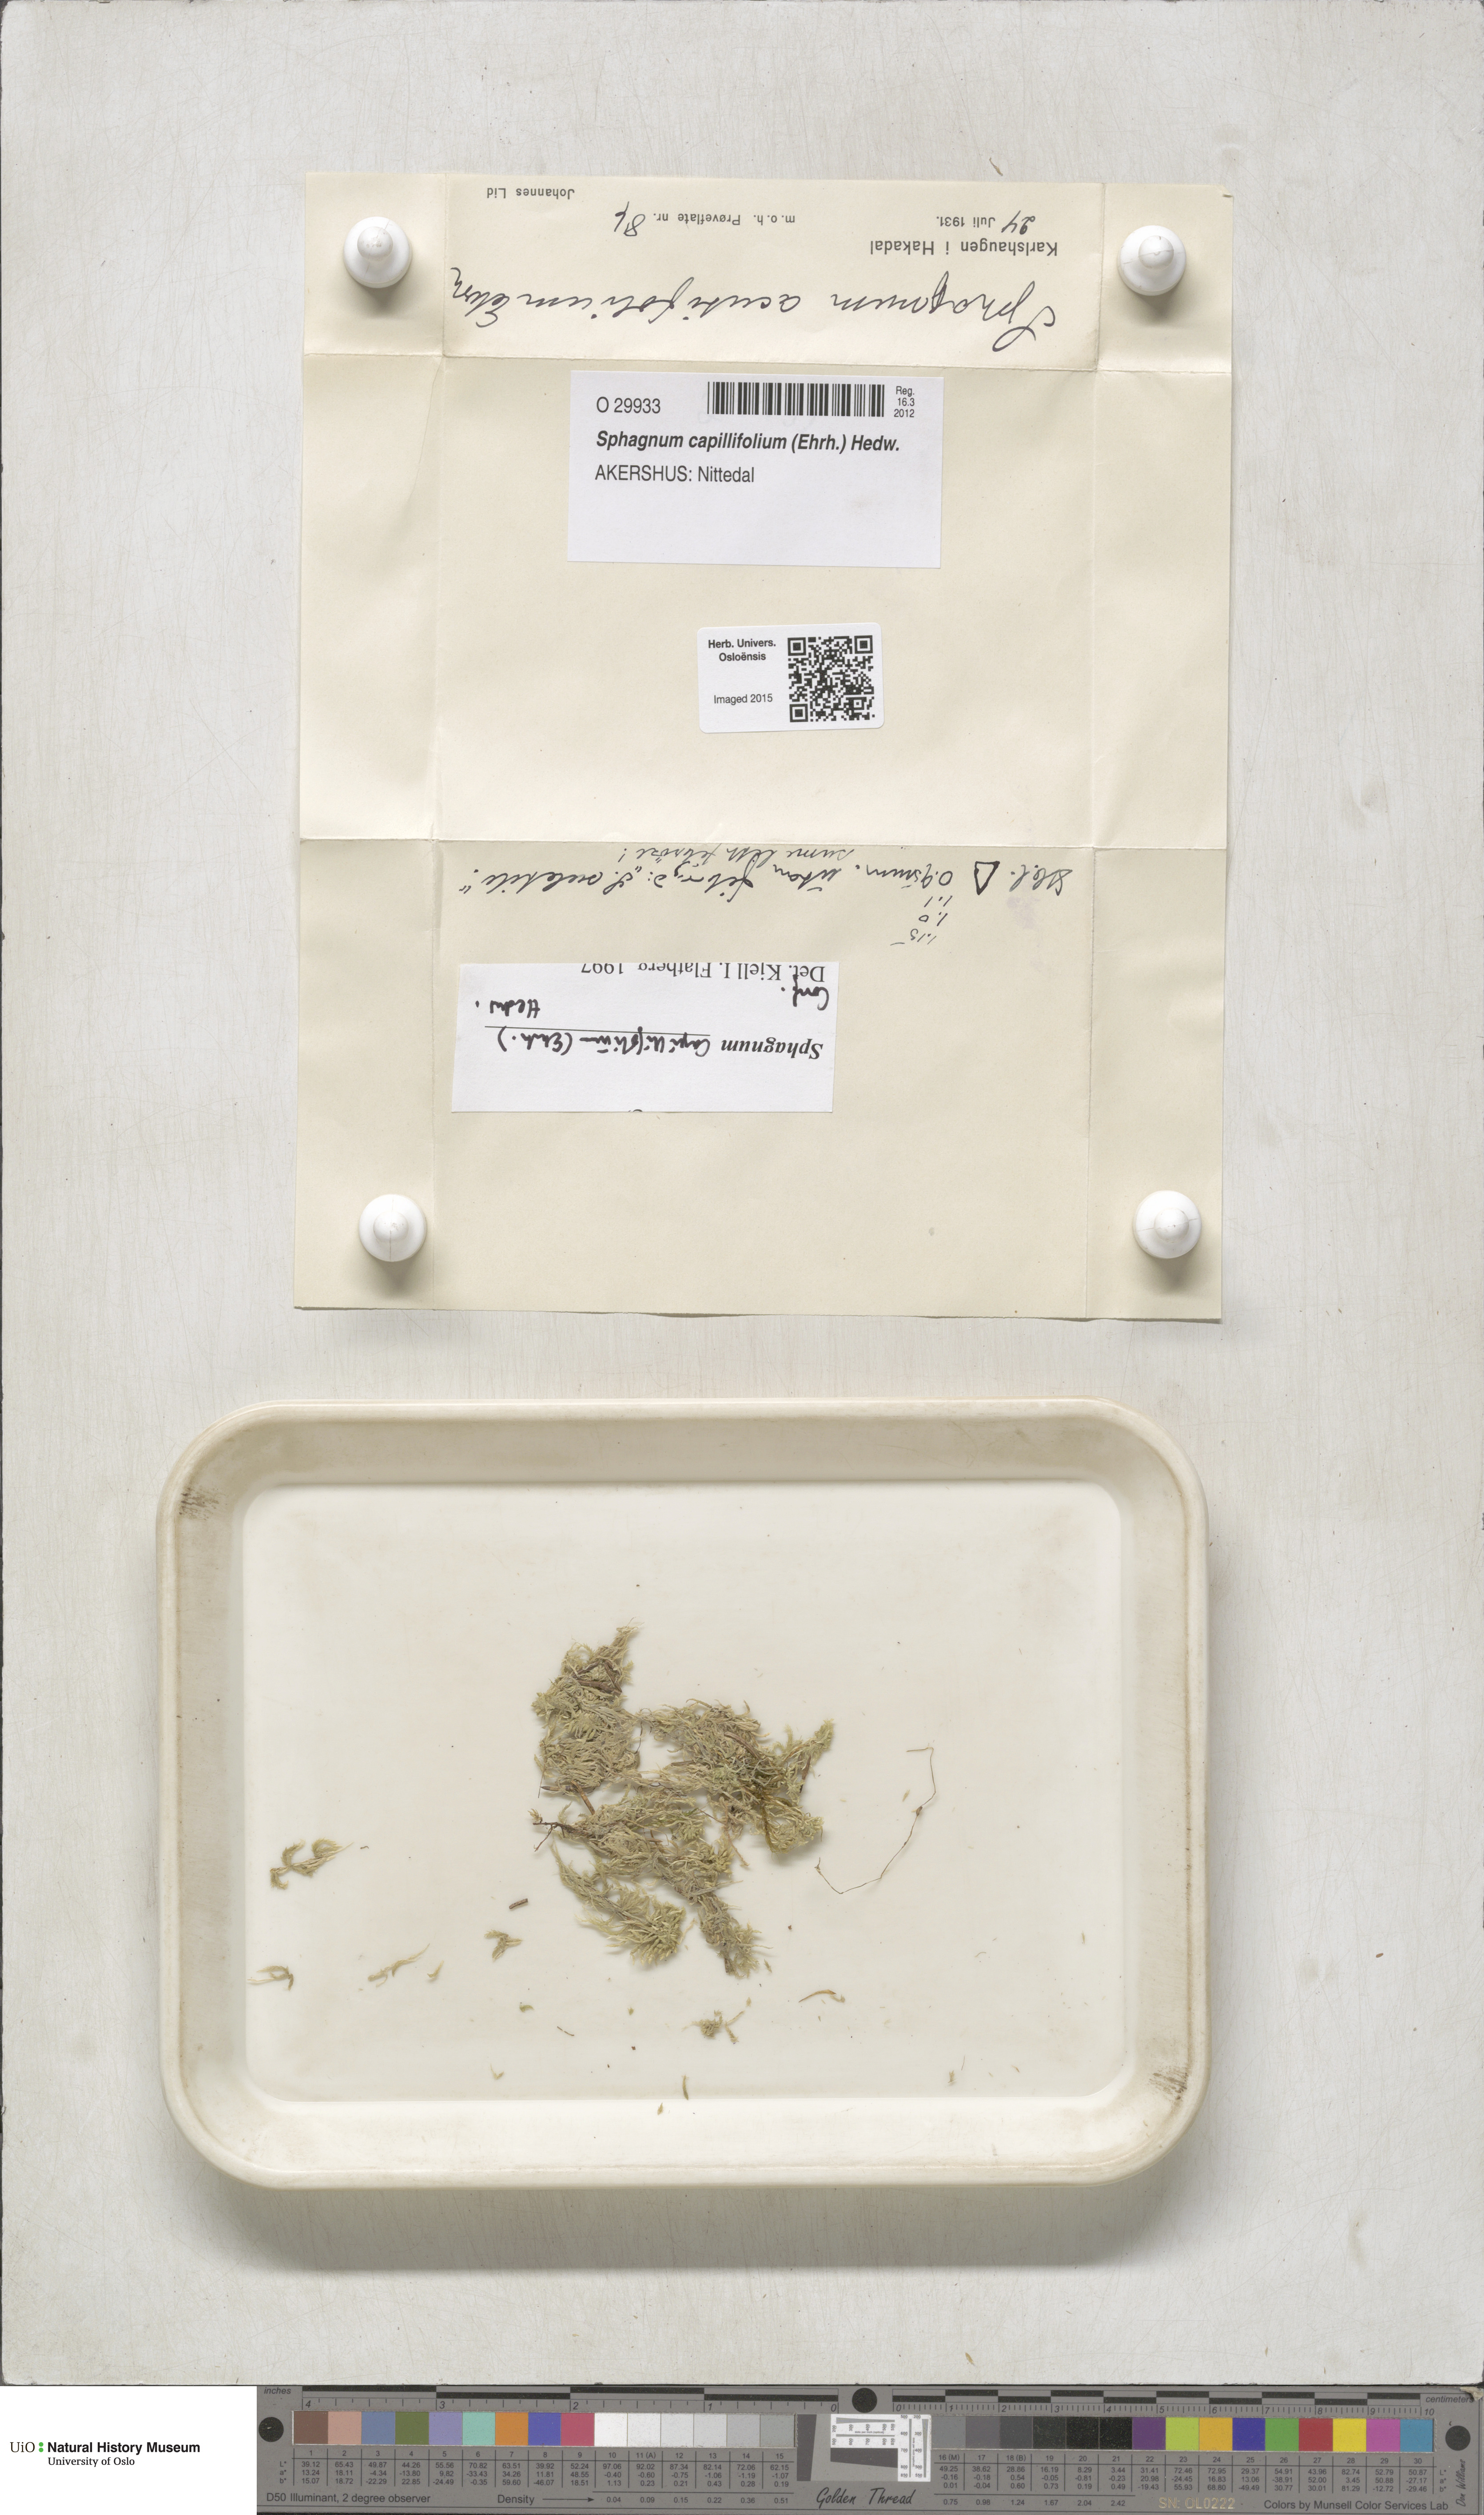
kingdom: Plantae
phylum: Bryophyta
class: Sphagnopsida
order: Sphagnales
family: Sphagnaceae
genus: Sphagnum
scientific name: Sphagnum capillifolium
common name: Small red peat moss
